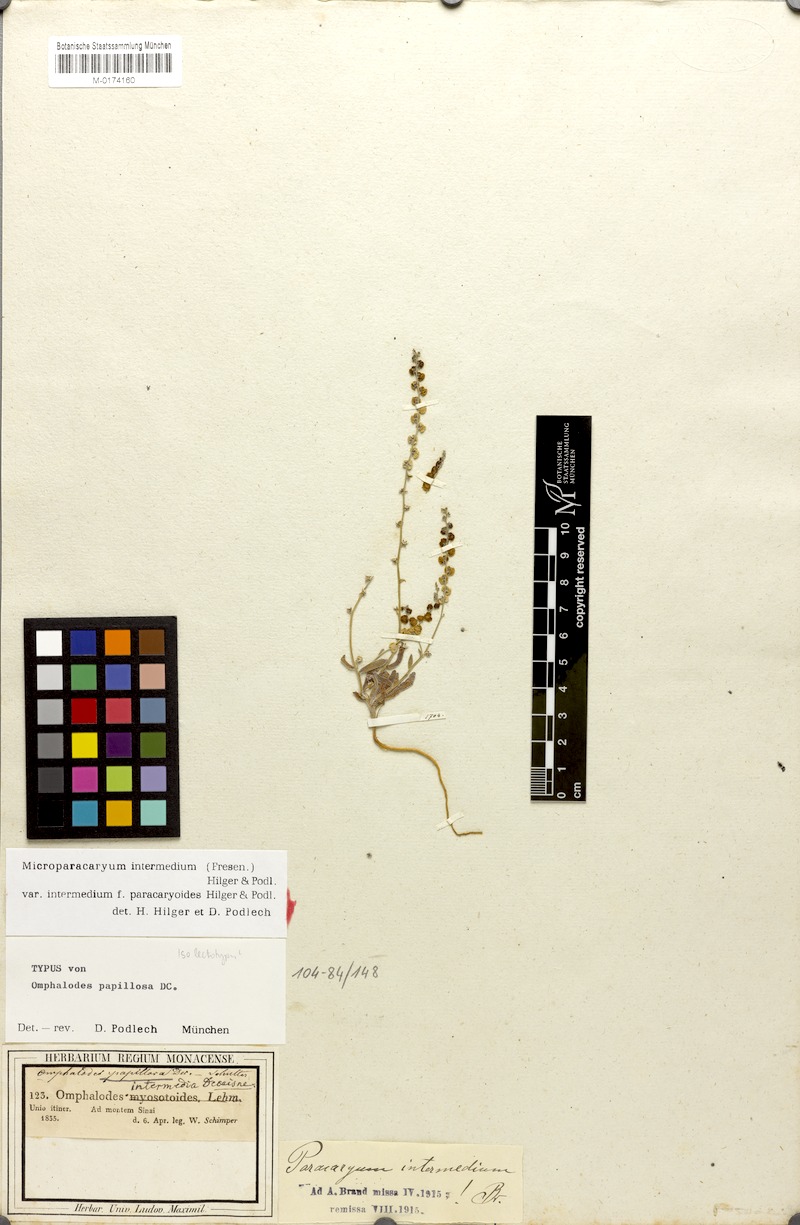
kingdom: Plantae
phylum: Tracheophyta
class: Magnoliopsida
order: Boraginales
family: Boraginaceae
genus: Microparacaryum
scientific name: Microparacaryum intermedium
